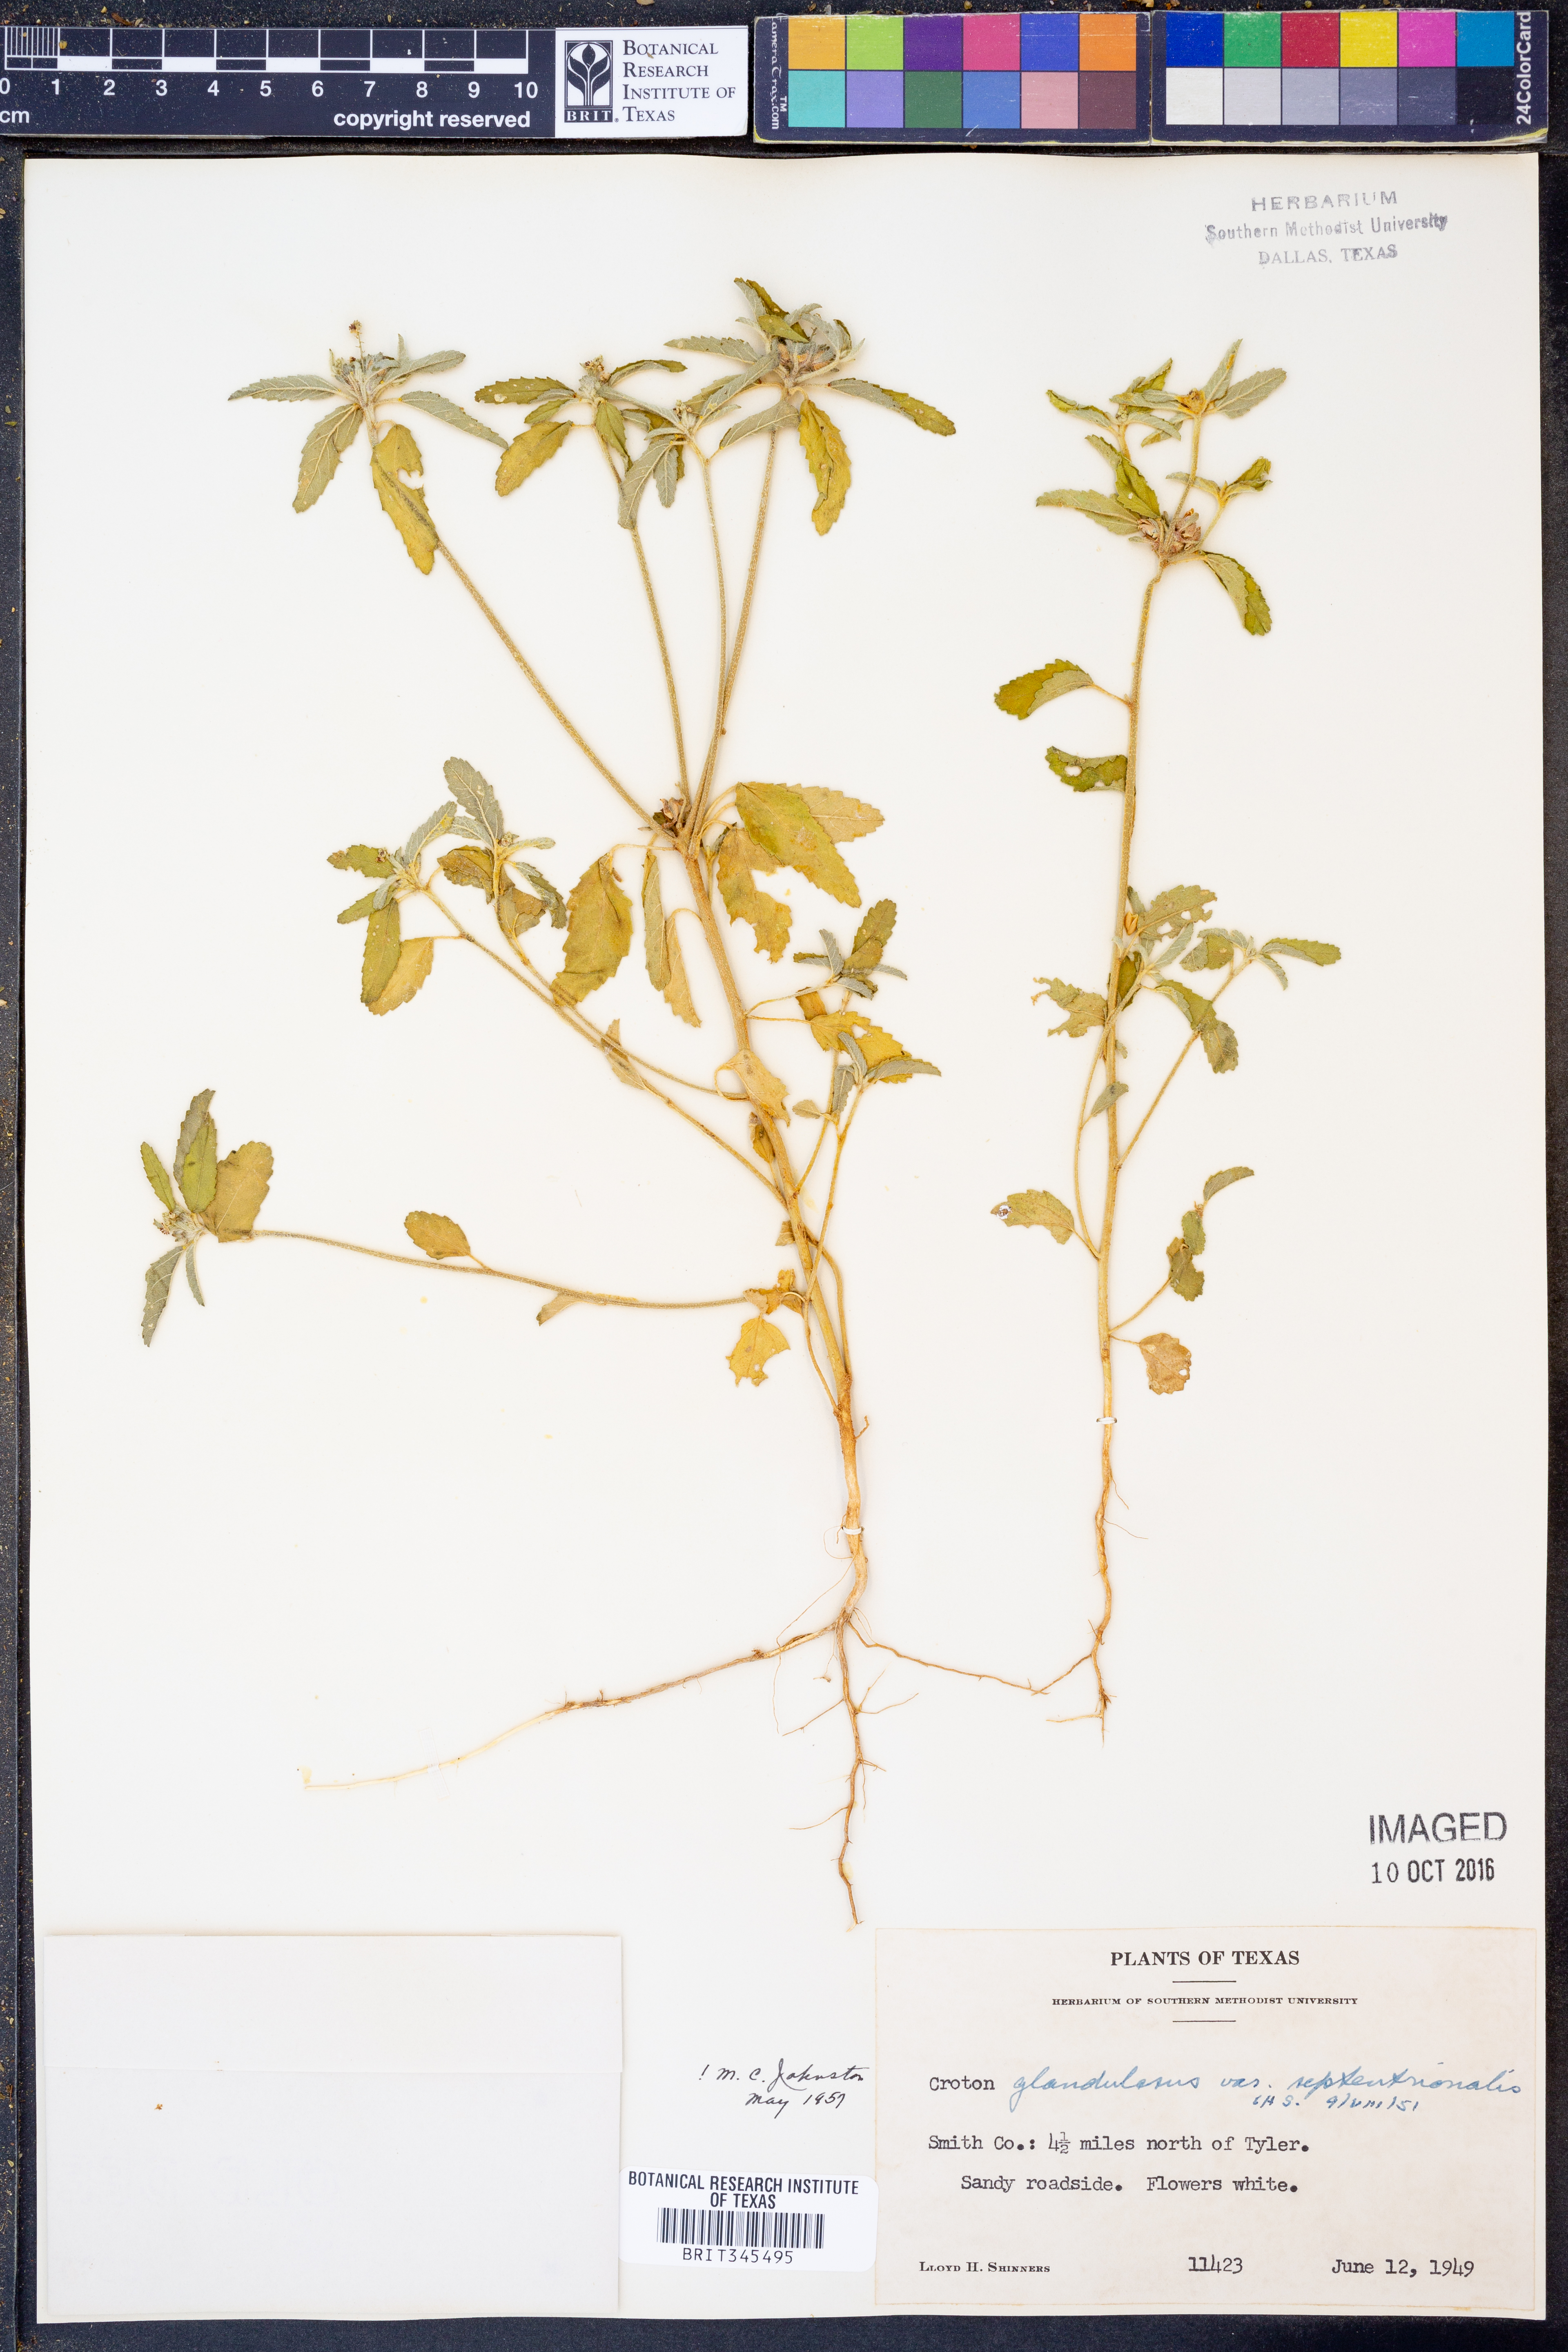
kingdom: Plantae
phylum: Tracheophyta
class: Magnoliopsida
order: Malpighiales
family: Euphorbiaceae
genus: Croton
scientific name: Croton glandulosus
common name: Tropic croton
